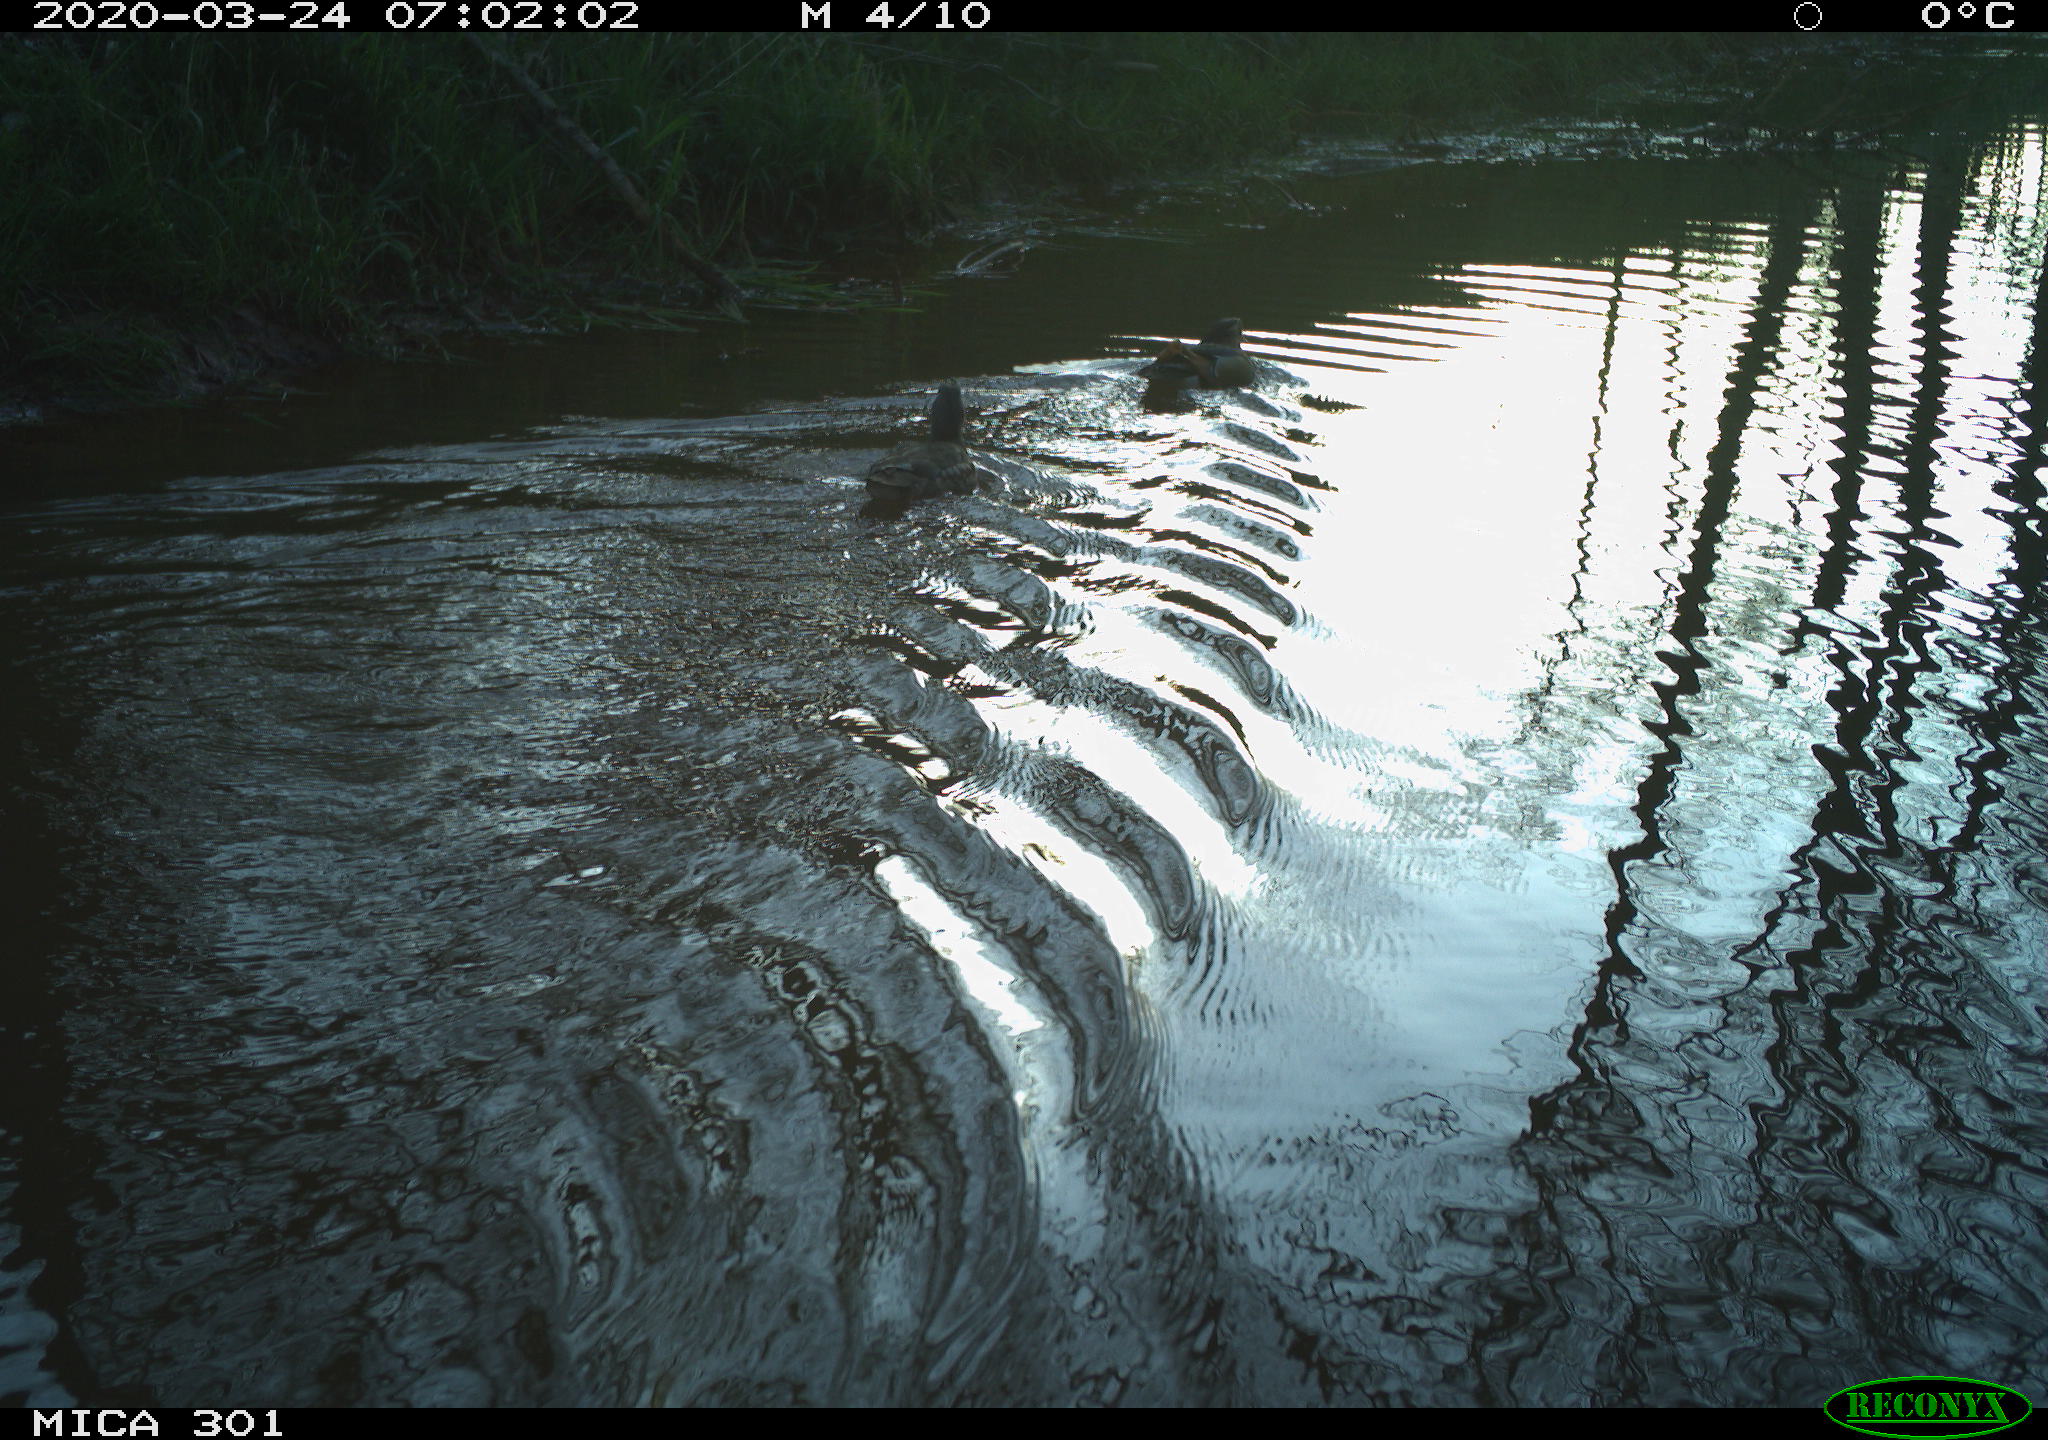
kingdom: Animalia
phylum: Chordata
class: Aves
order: Anseriformes
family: Anatidae
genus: Aix
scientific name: Aix galericulata
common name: Mandarin duck
